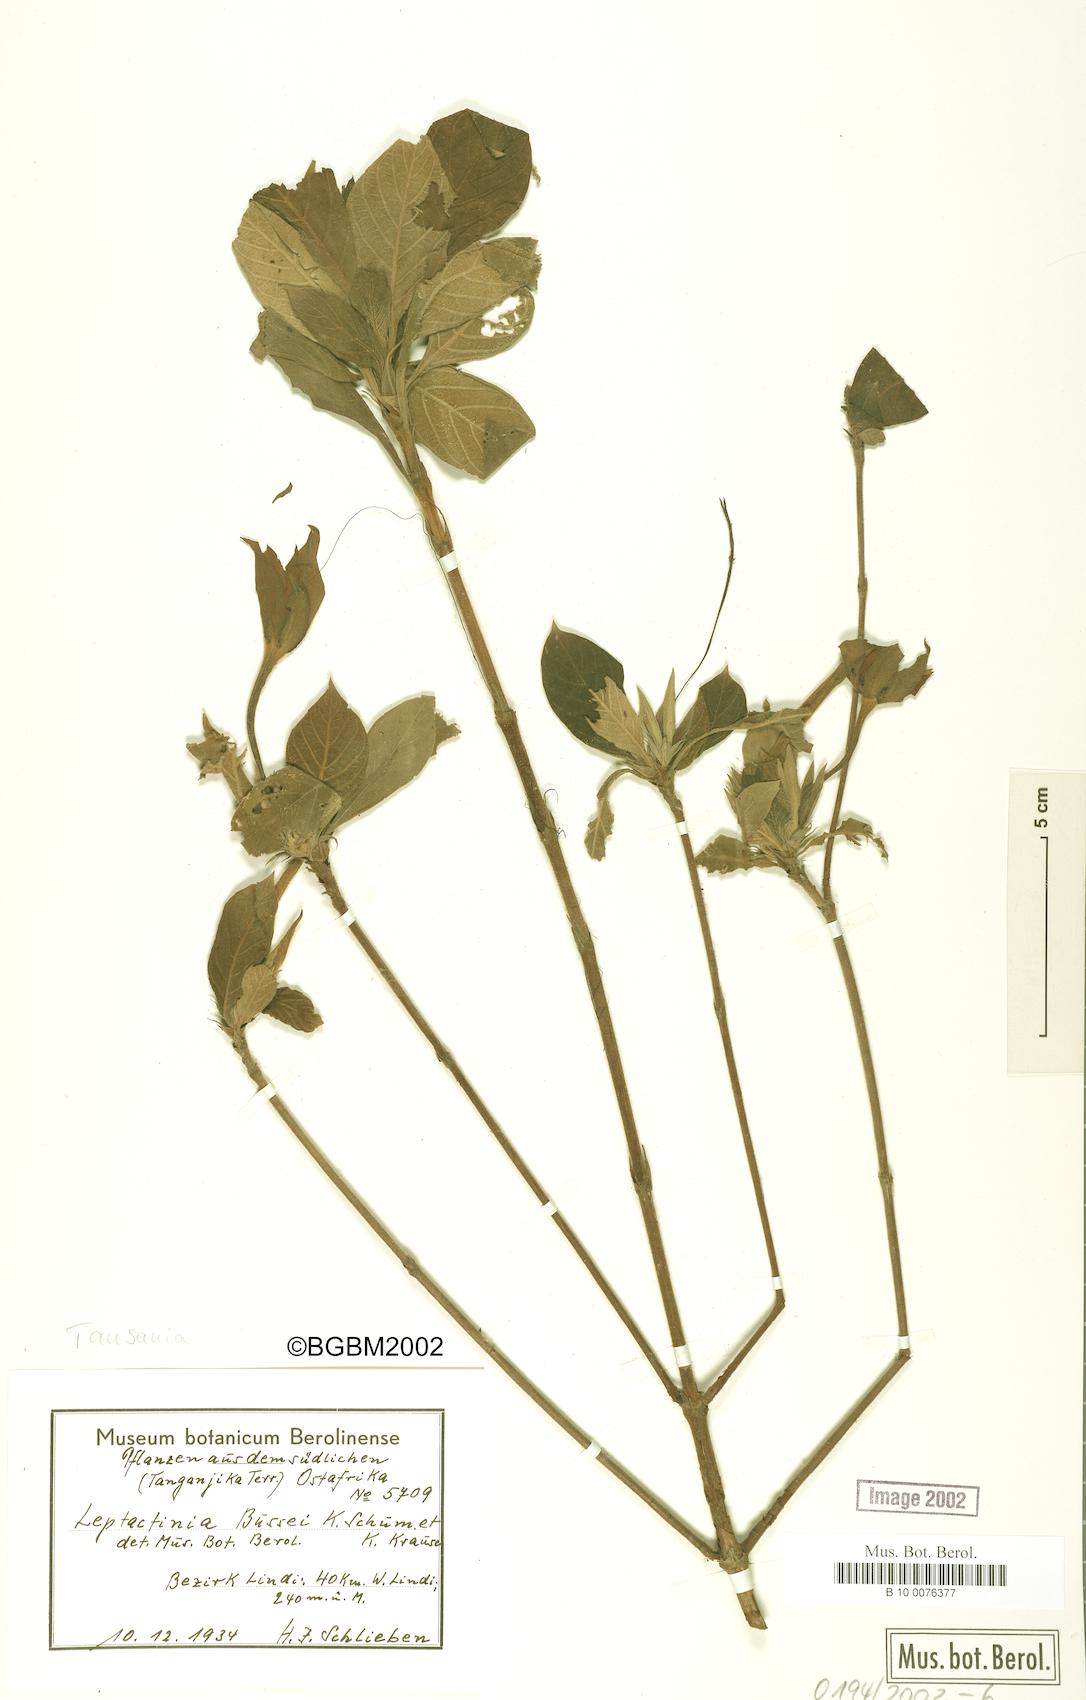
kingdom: Plantae
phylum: Tracheophyta
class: Magnoliopsida
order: Gentianales
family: Rubiaceae
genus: Leptactina
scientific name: Leptactina delagoensis
